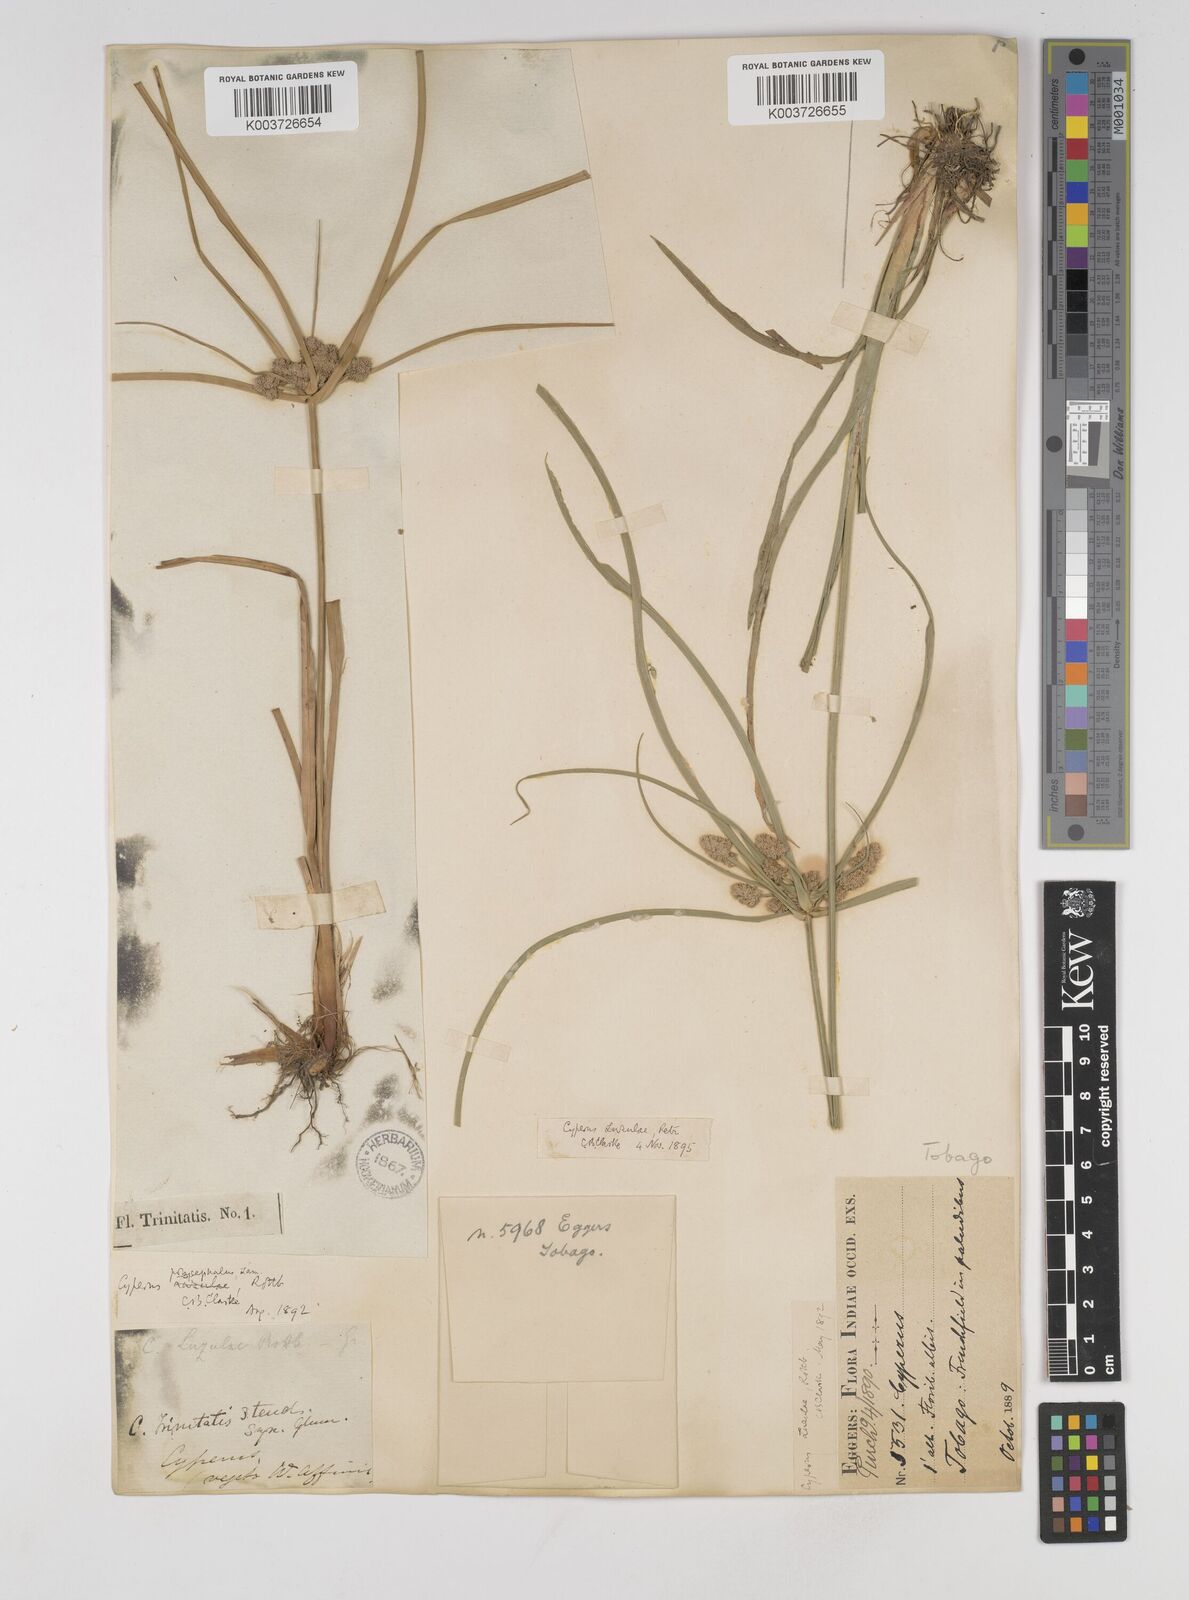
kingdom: Plantae
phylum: Tracheophyta
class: Liliopsida
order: Poales
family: Cyperaceae
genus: Cyperus
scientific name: Cyperus luzulae
